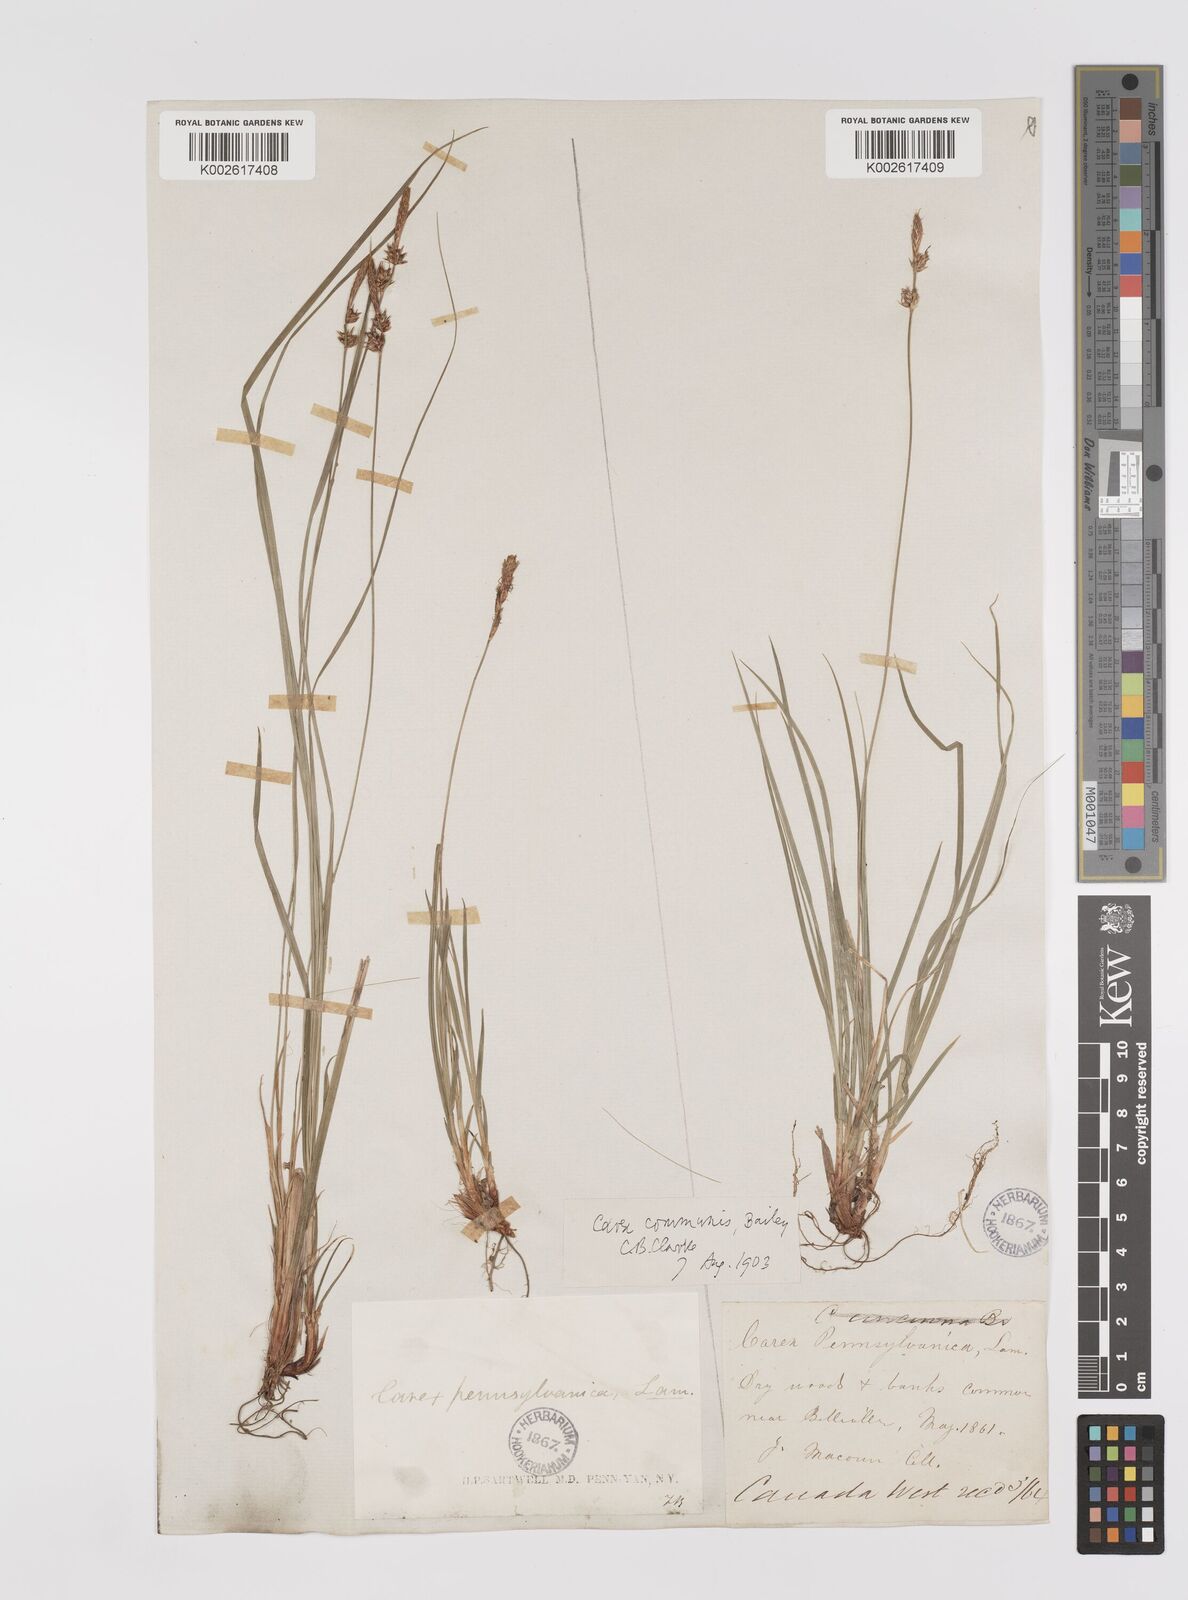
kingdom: Plantae
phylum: Tracheophyta
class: Liliopsida
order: Poales
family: Cyperaceae
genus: Carex
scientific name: Carex communis
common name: Colonial oak sedge
